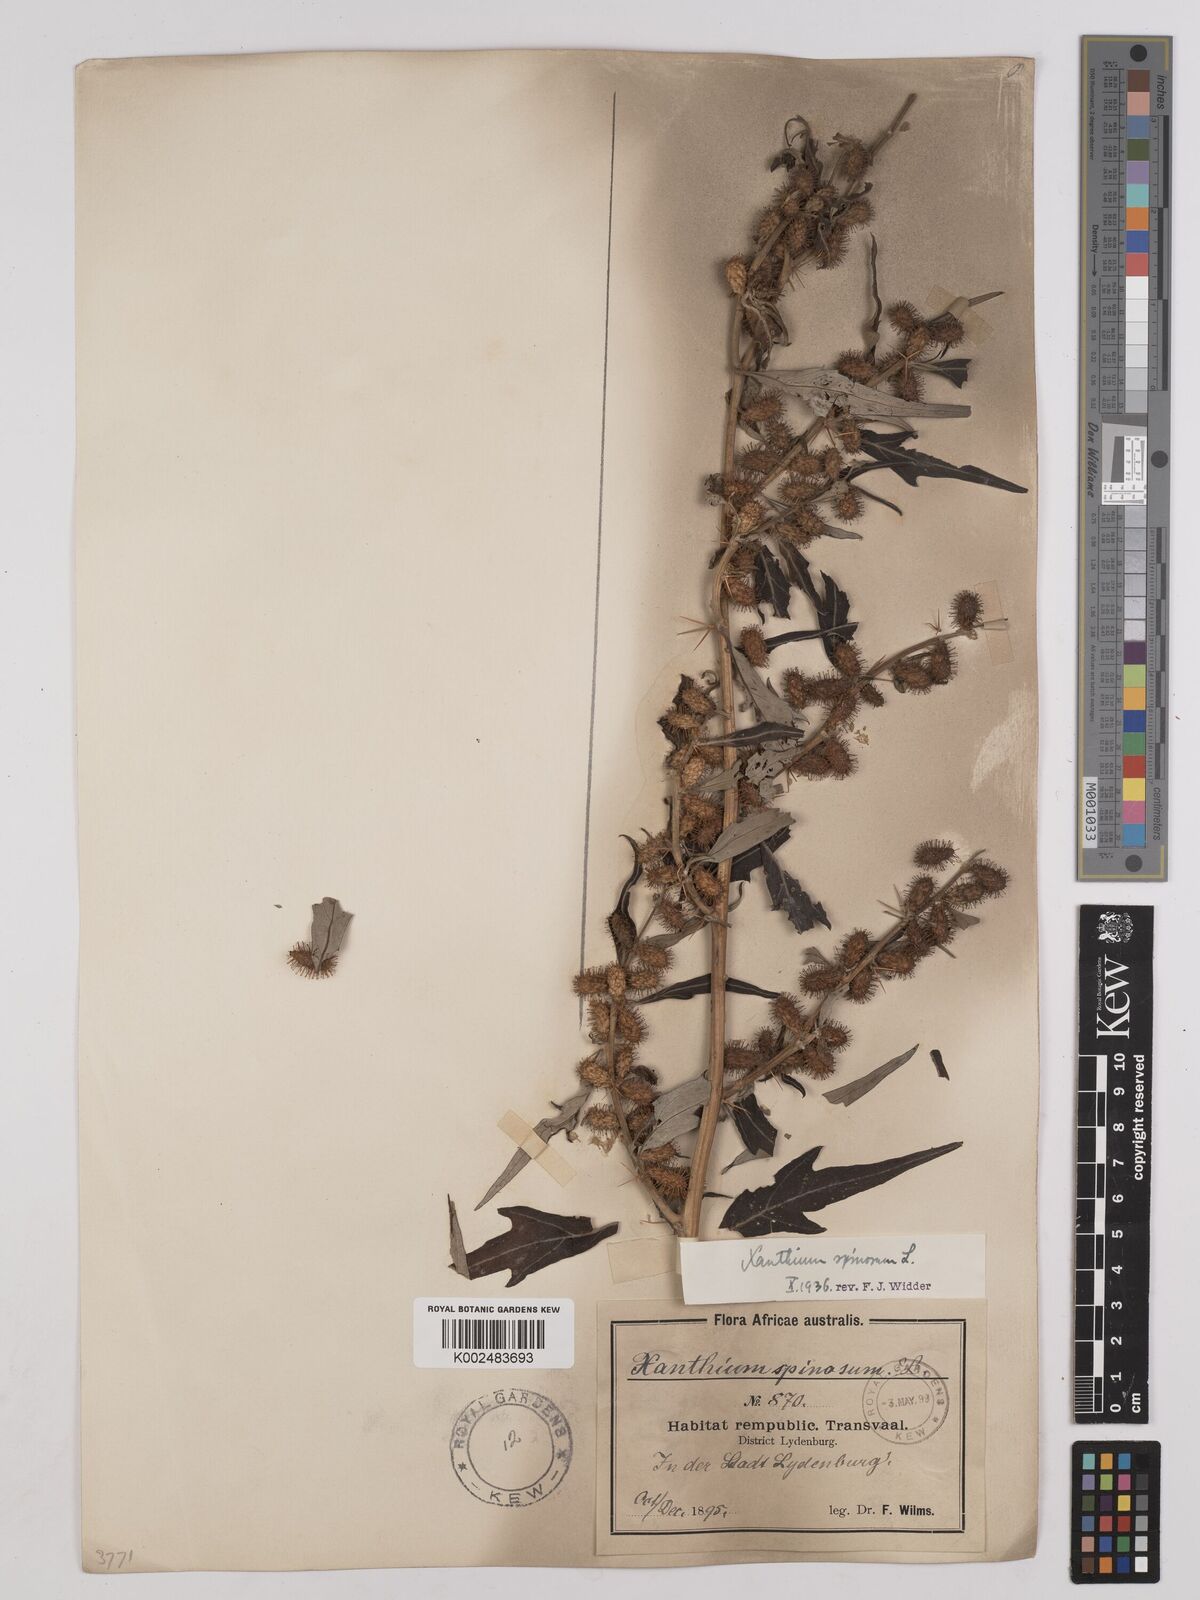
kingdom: Plantae
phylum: Tracheophyta
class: Magnoliopsida
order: Asterales
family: Asteraceae
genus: Xanthium
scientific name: Xanthium spinosum
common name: Spiny cocklebur
